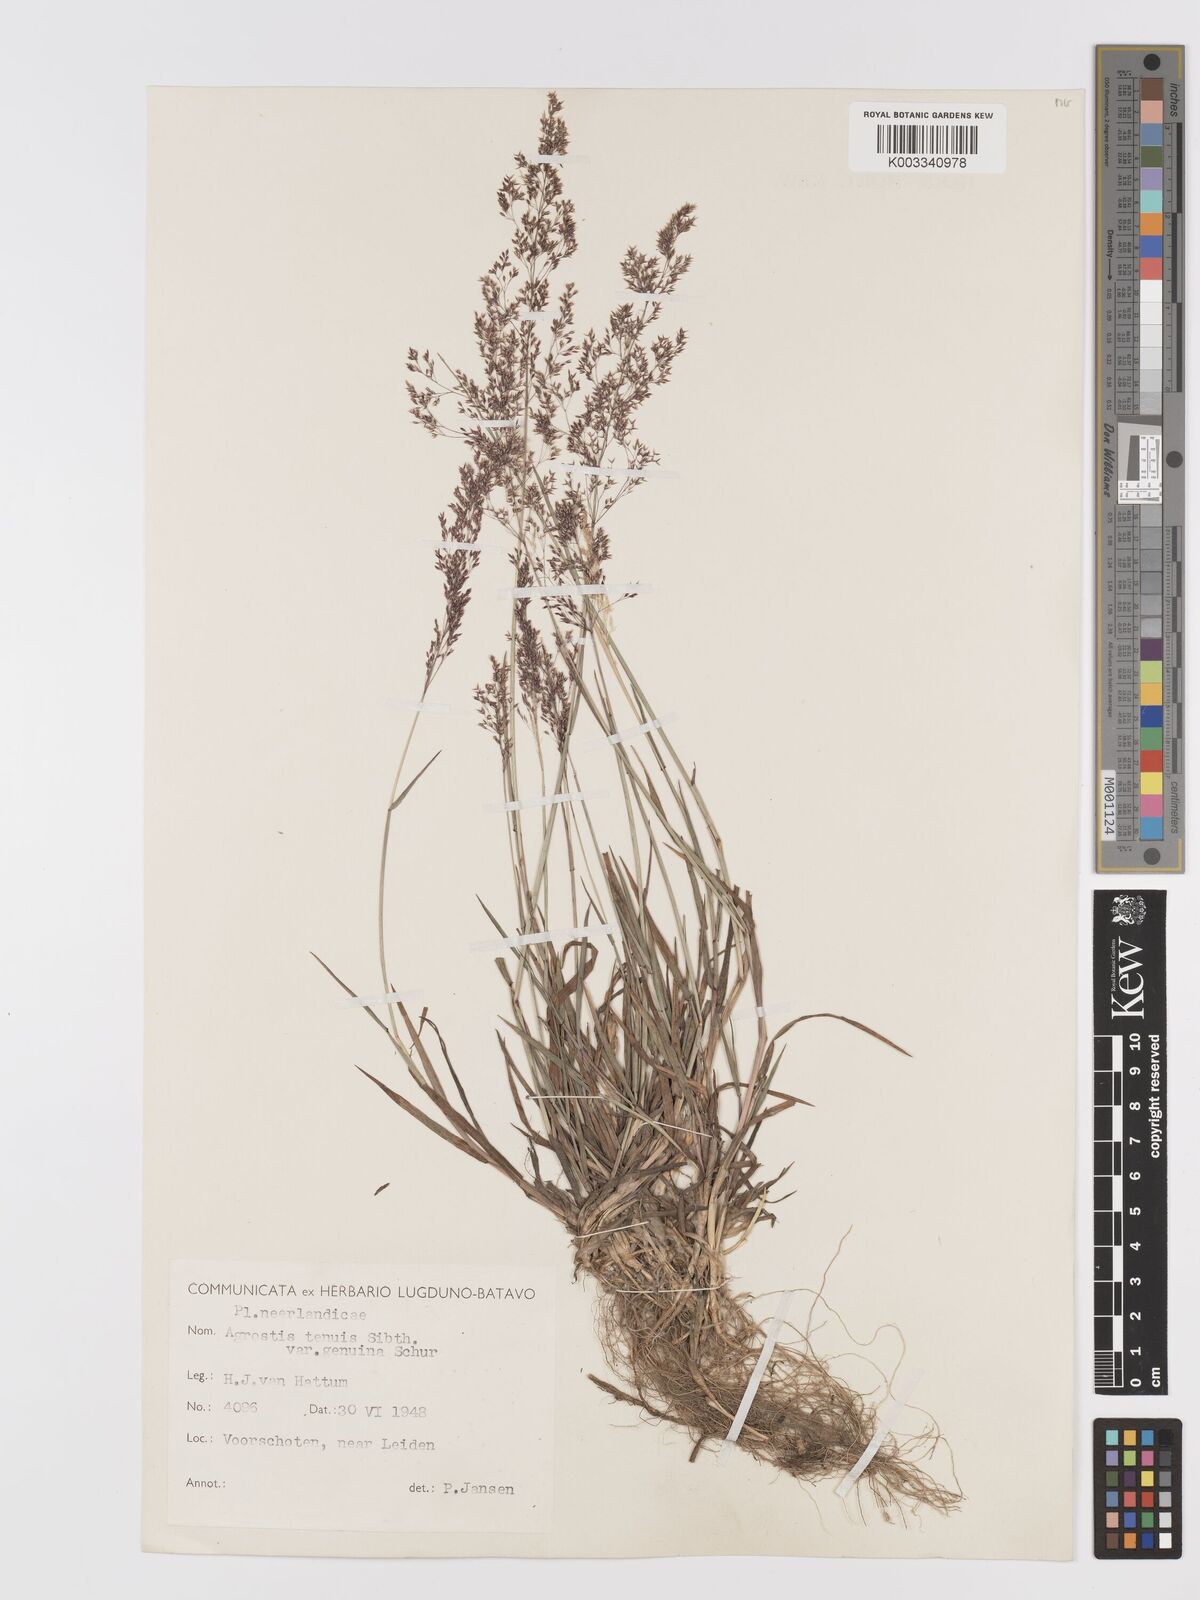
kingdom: Plantae
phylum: Tracheophyta
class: Liliopsida
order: Poales
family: Poaceae
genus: Agrostis
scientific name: Agrostis capillaris
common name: Colonial bentgrass
